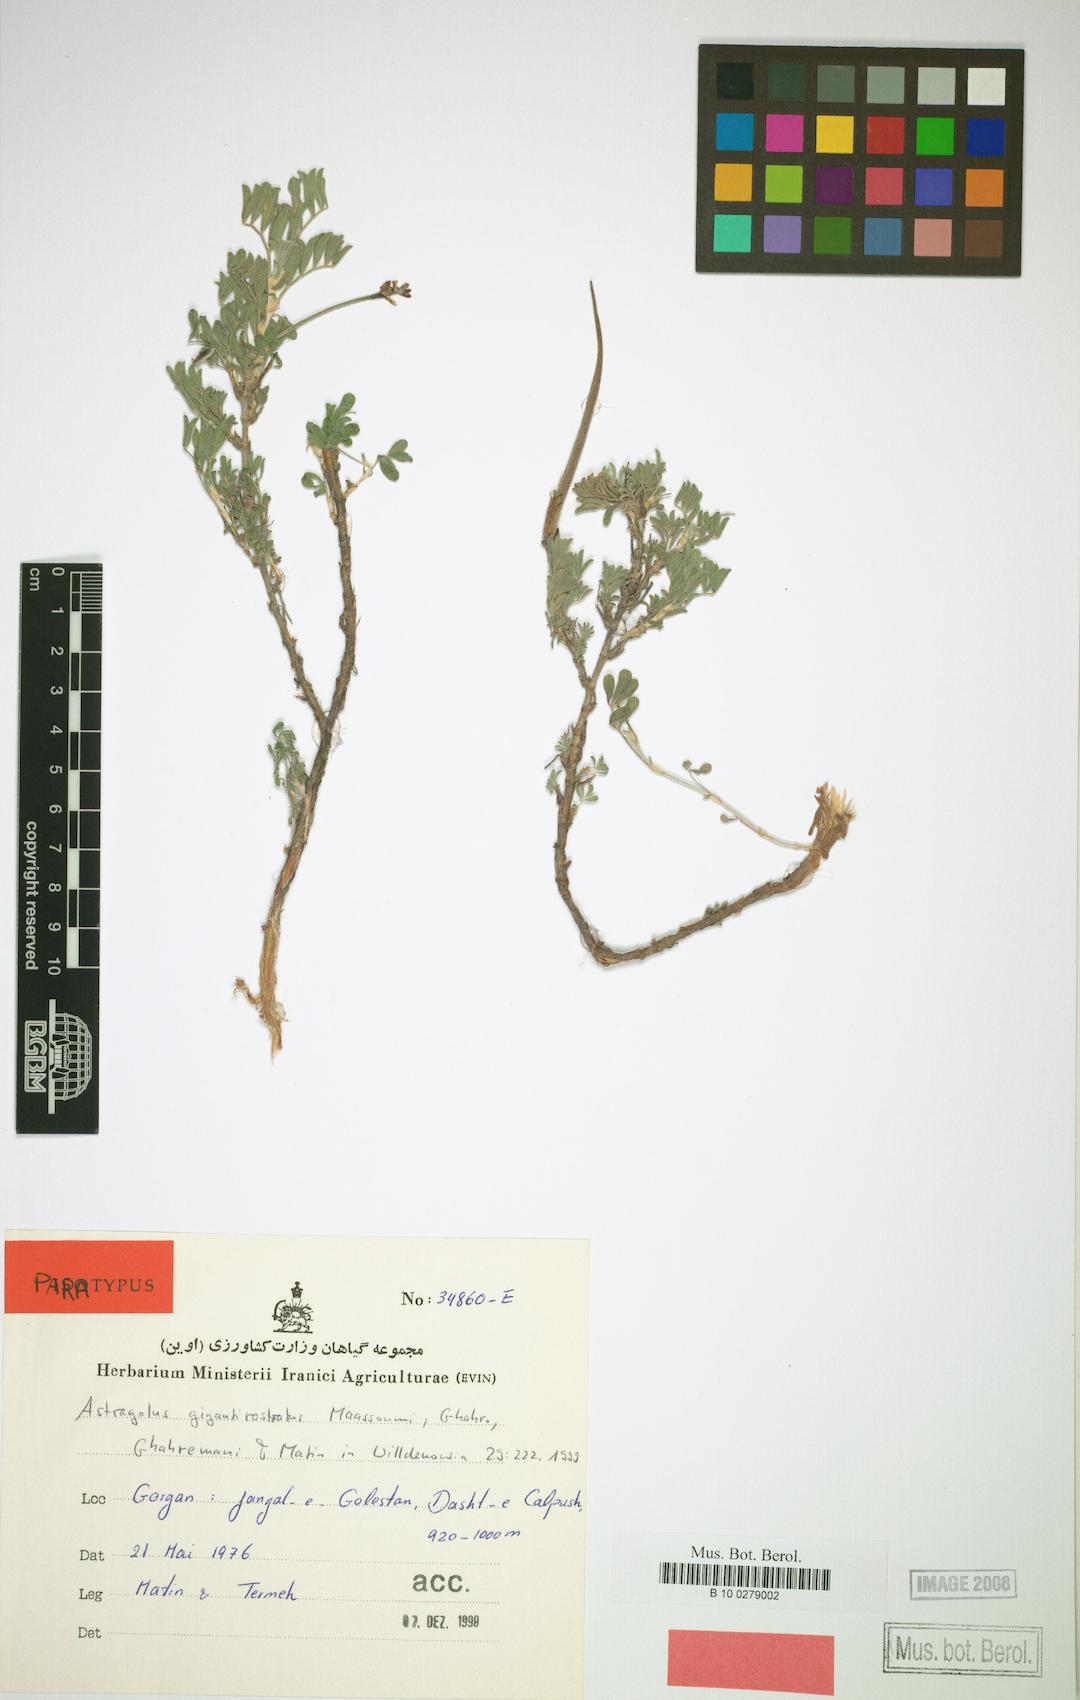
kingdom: Plantae
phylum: Tracheophyta
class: Magnoliopsida
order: Fabales
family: Fabaceae
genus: Astragalus
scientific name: Astragalus gigantirostratus
